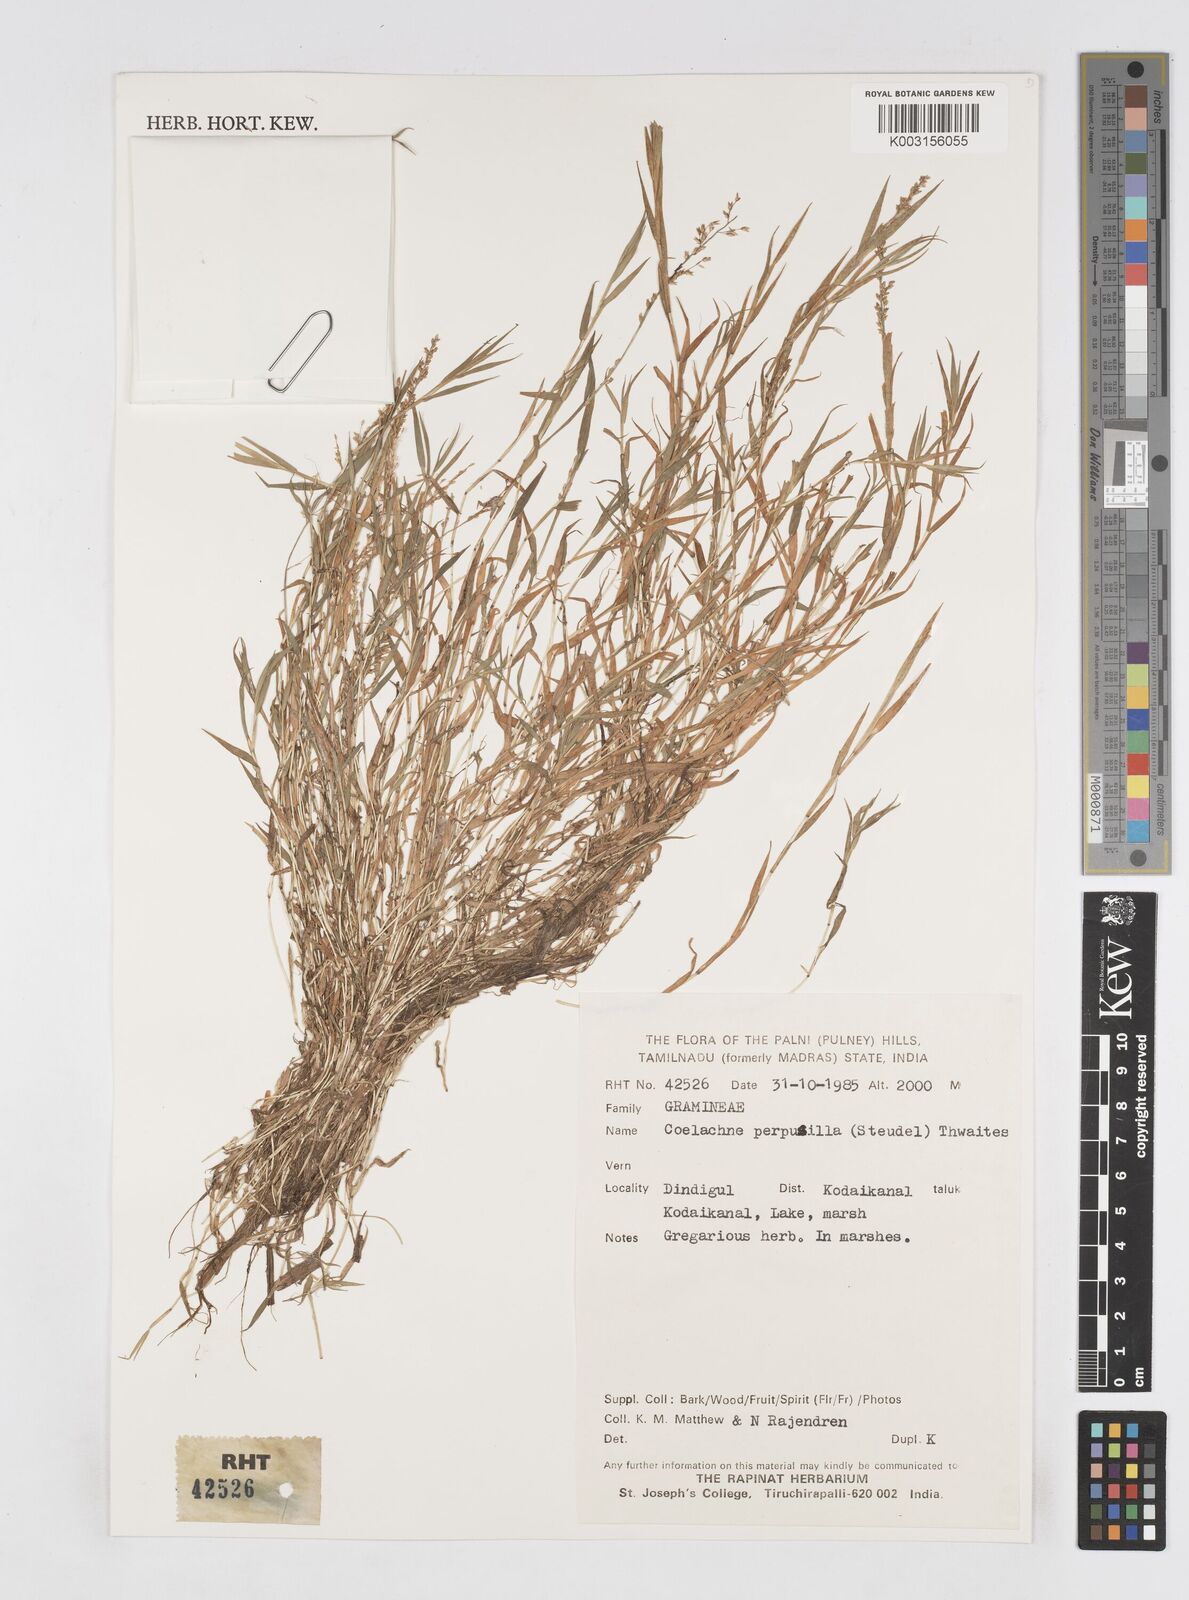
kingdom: Plantae
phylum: Tracheophyta
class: Liliopsida
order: Poales
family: Poaceae
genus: Coelachne
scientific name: Coelachne perpusilla
